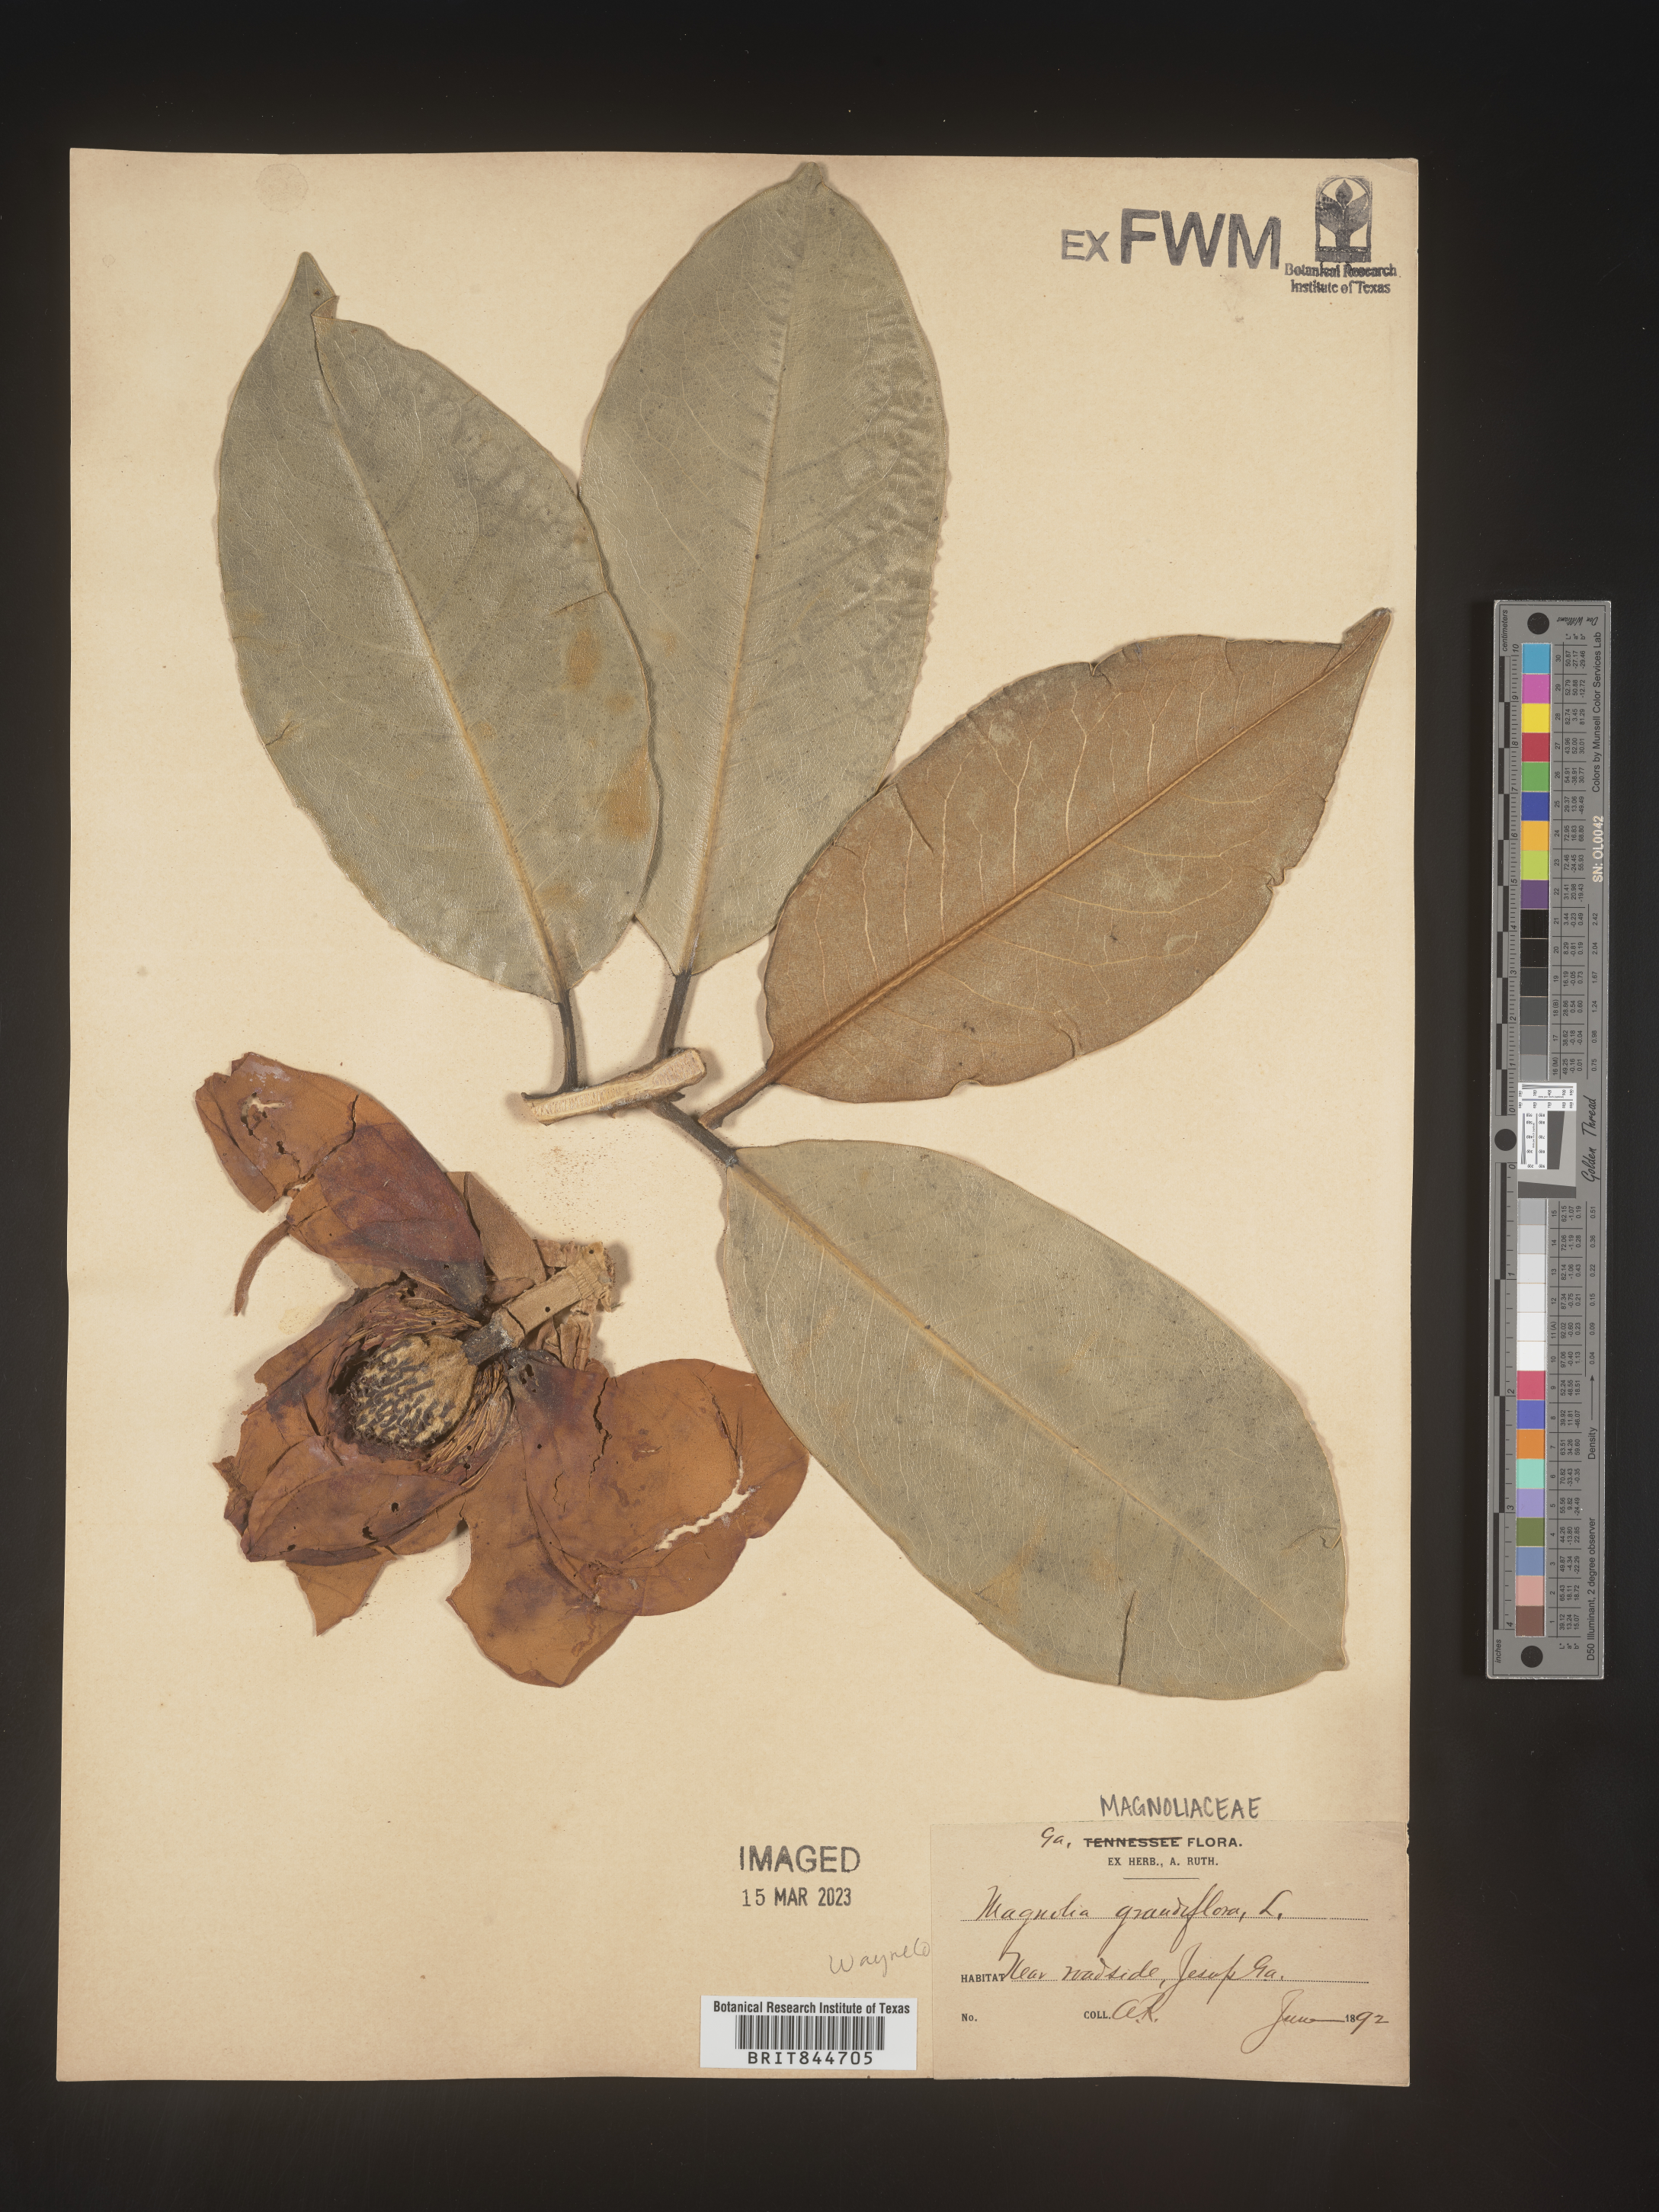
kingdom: Plantae
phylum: Tracheophyta
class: Magnoliopsida
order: Magnoliales
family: Magnoliaceae
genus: Magnolia
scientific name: Magnolia grandiflora
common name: Southern magnolia
